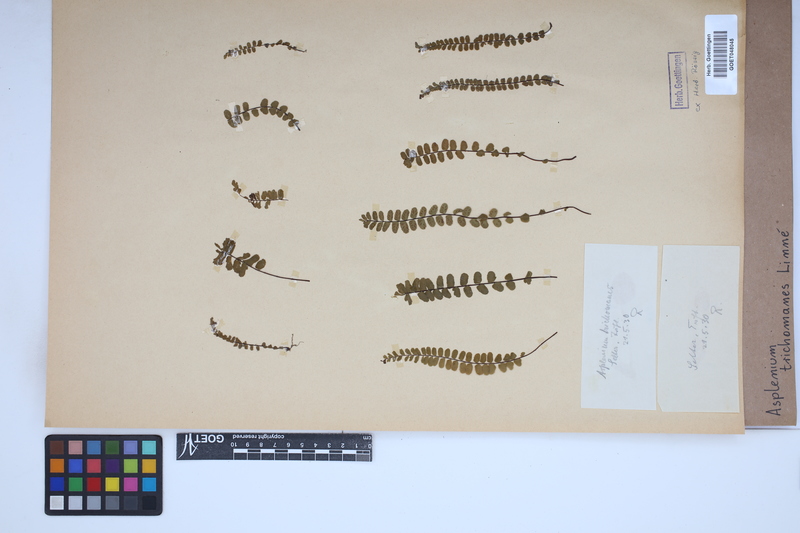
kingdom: Plantae
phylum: Tracheophyta
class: Polypodiopsida
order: Polypodiales
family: Aspleniaceae
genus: Asplenium
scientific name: Asplenium trichomanes
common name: Maidenhair spleenwort
